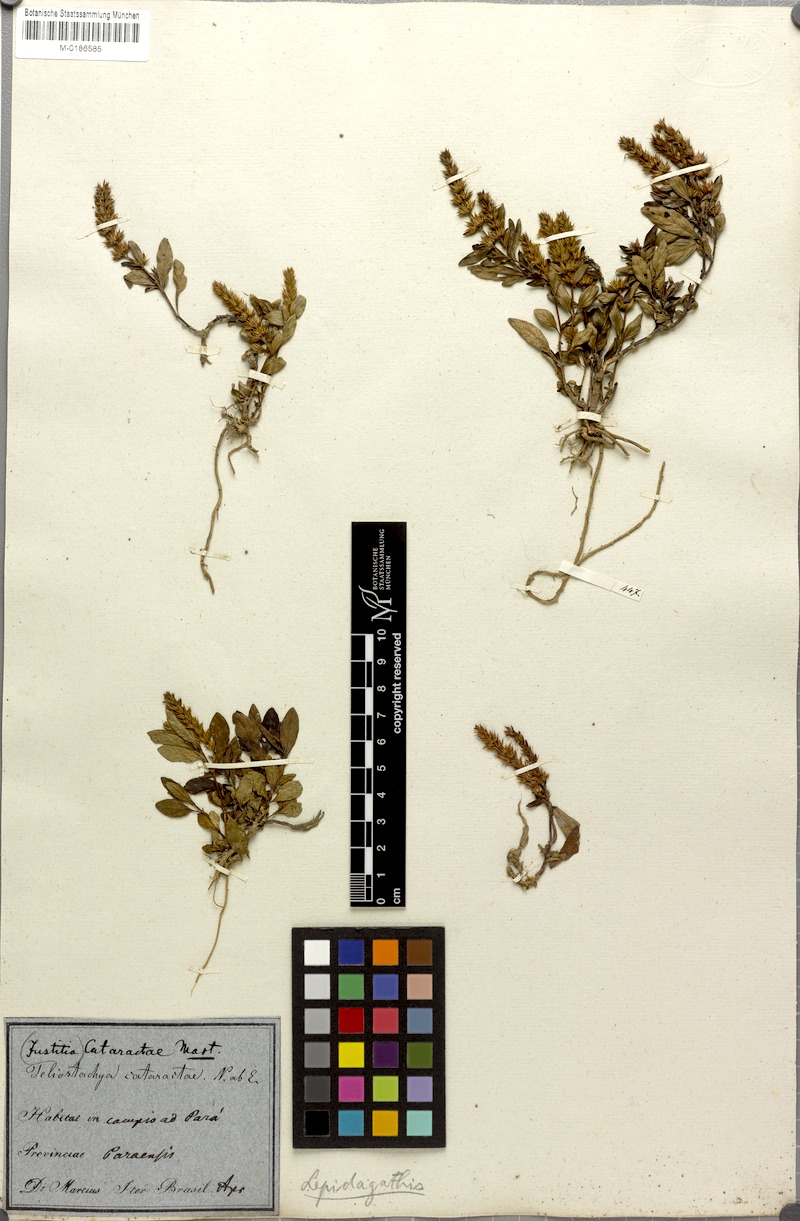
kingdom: Plantae
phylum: Tracheophyta
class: Magnoliopsida
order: Lamiales
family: Acanthaceae
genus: Lepidagathis
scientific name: Lepidagathis cataractae
